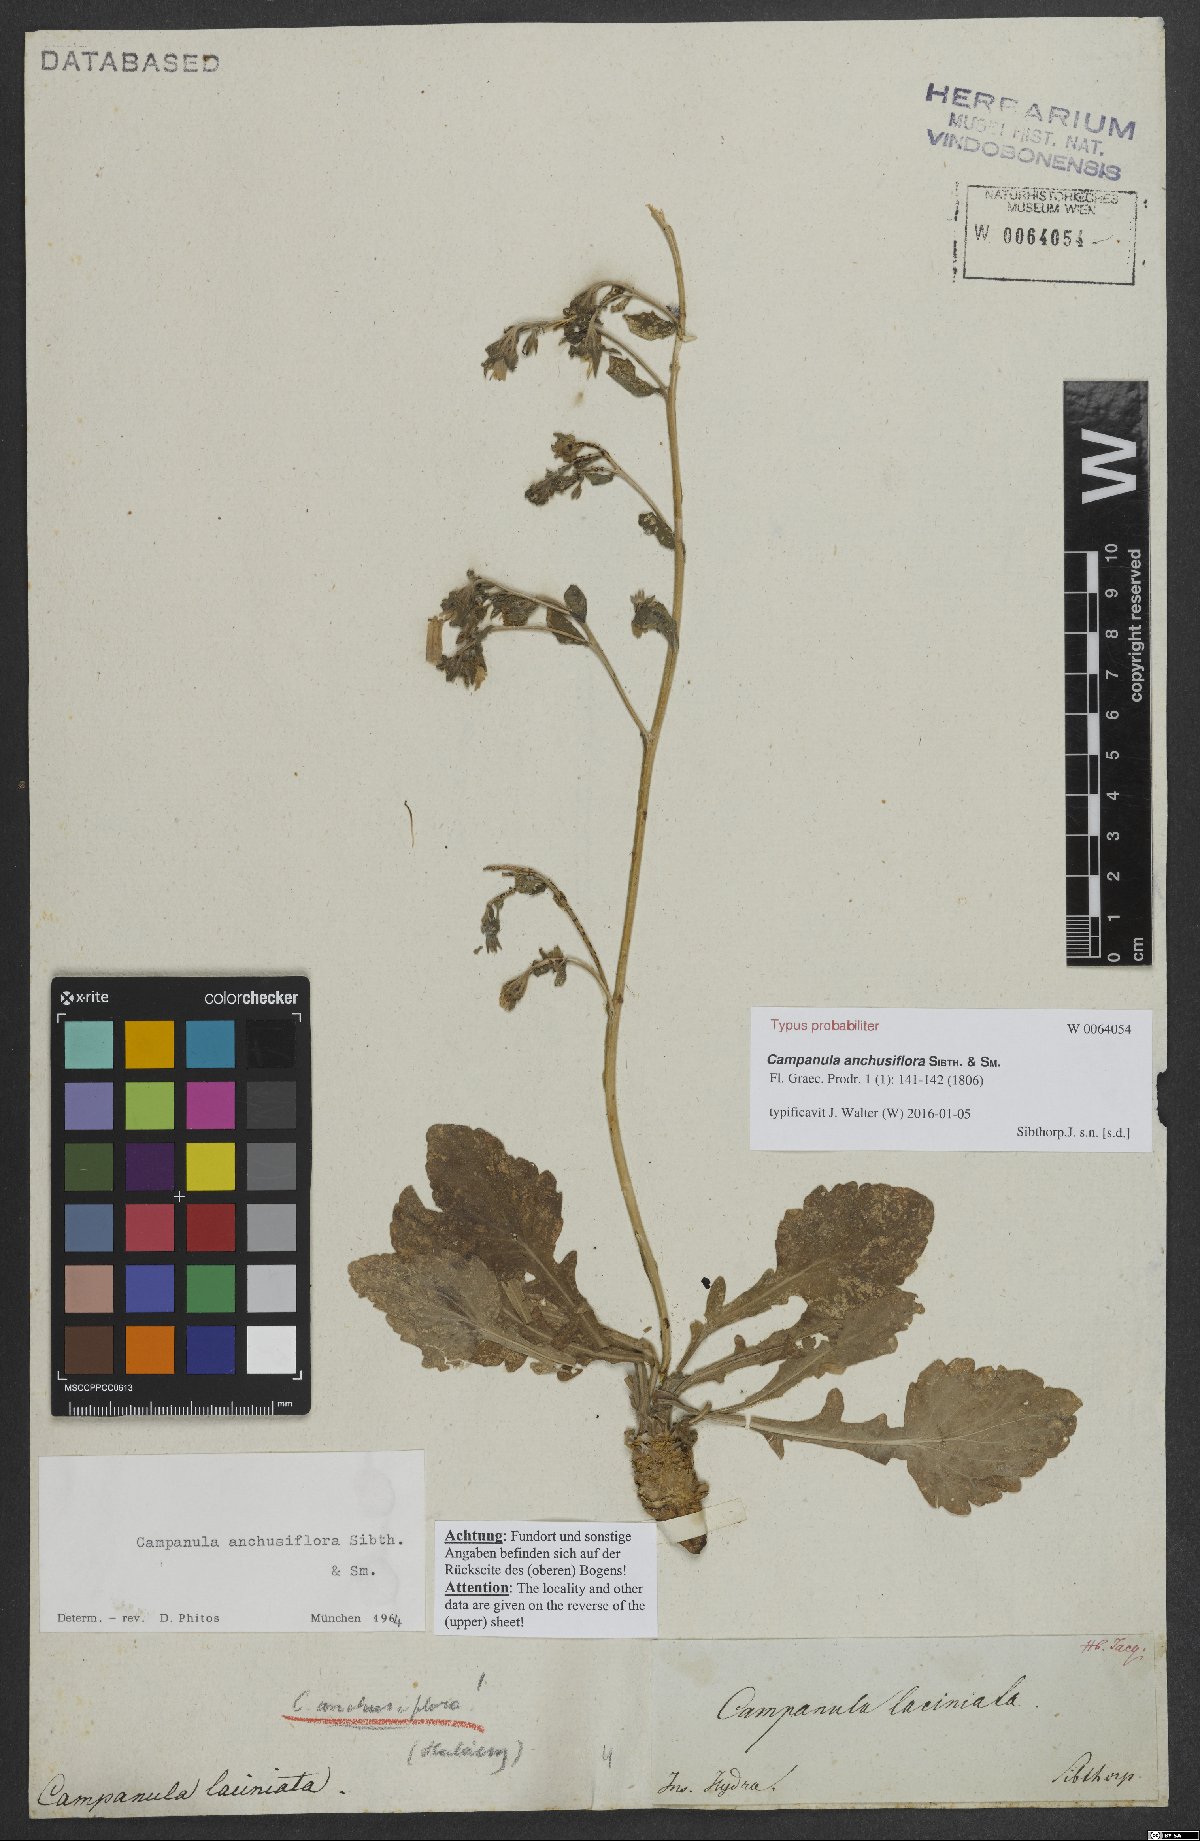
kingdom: Plantae
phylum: Tracheophyta
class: Magnoliopsida
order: Asterales
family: Campanulaceae
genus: Campanula
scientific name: Campanula anchusiflora
